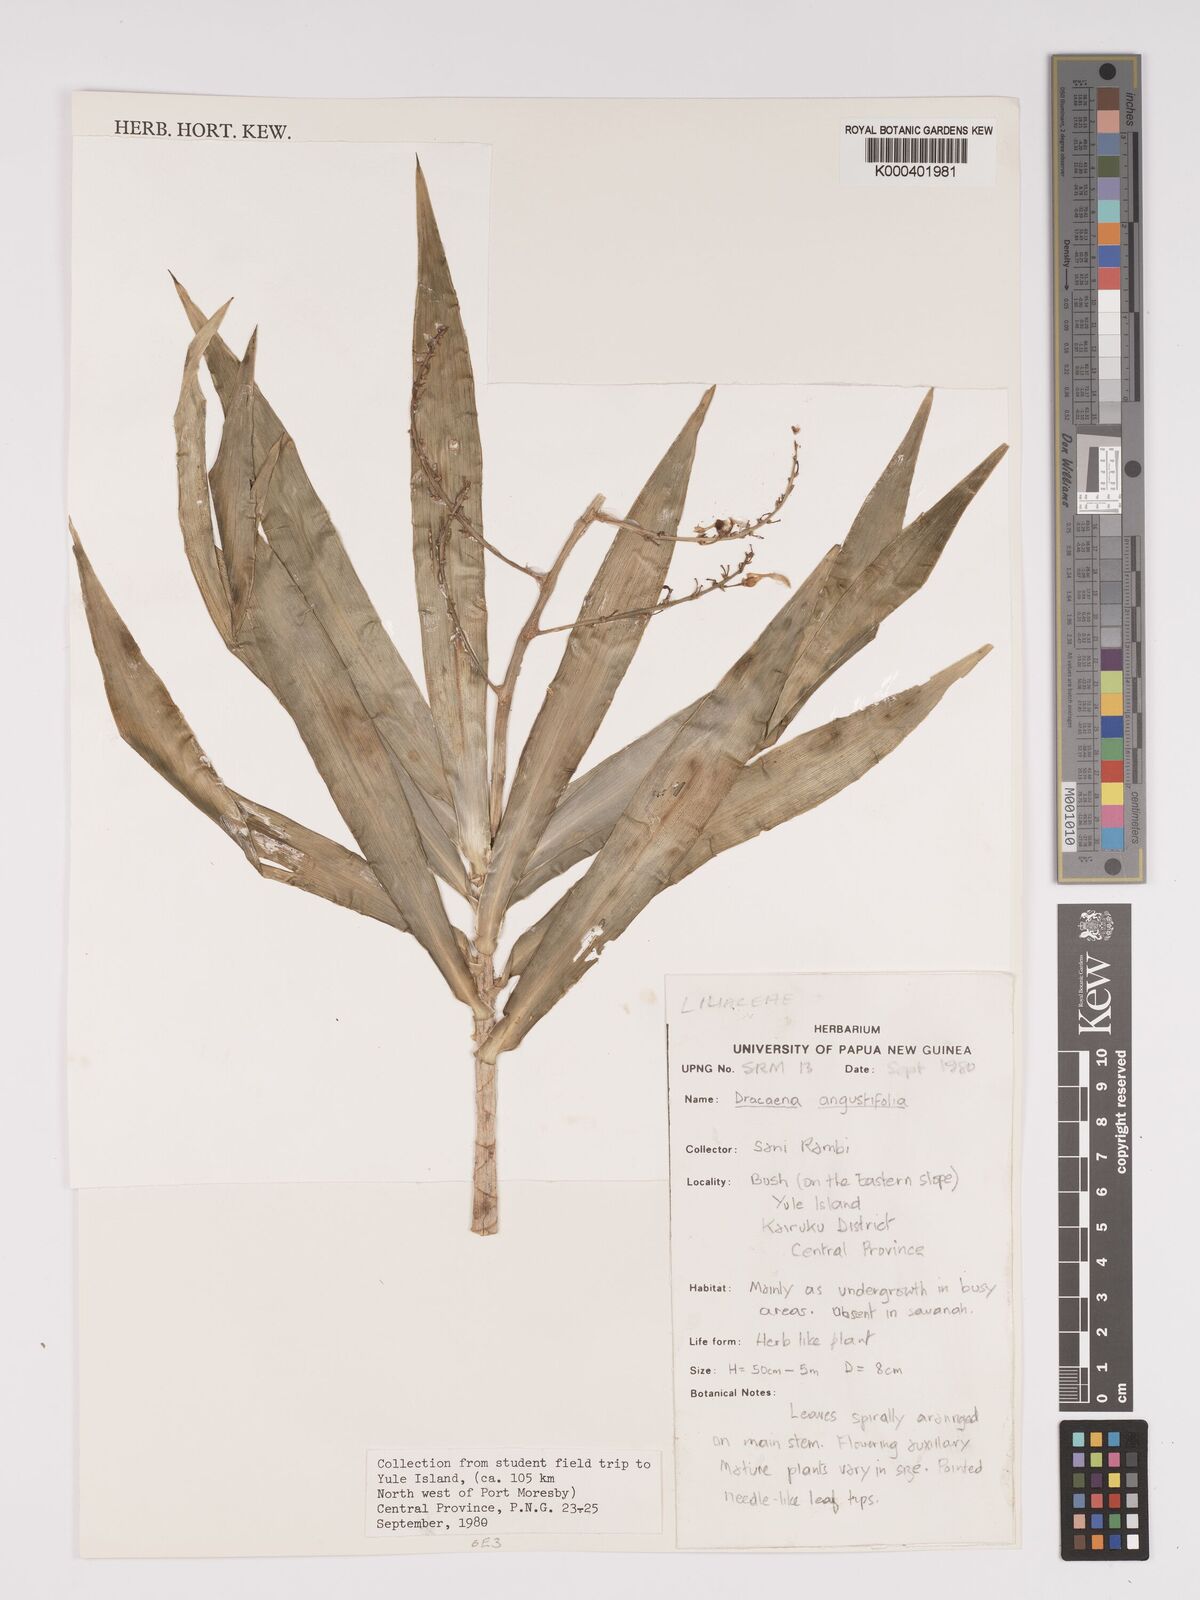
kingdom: Plantae
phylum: Tracheophyta
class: Liliopsida
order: Asparagales
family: Asparagaceae
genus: Dracaena
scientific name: Dracaena angustifolia
